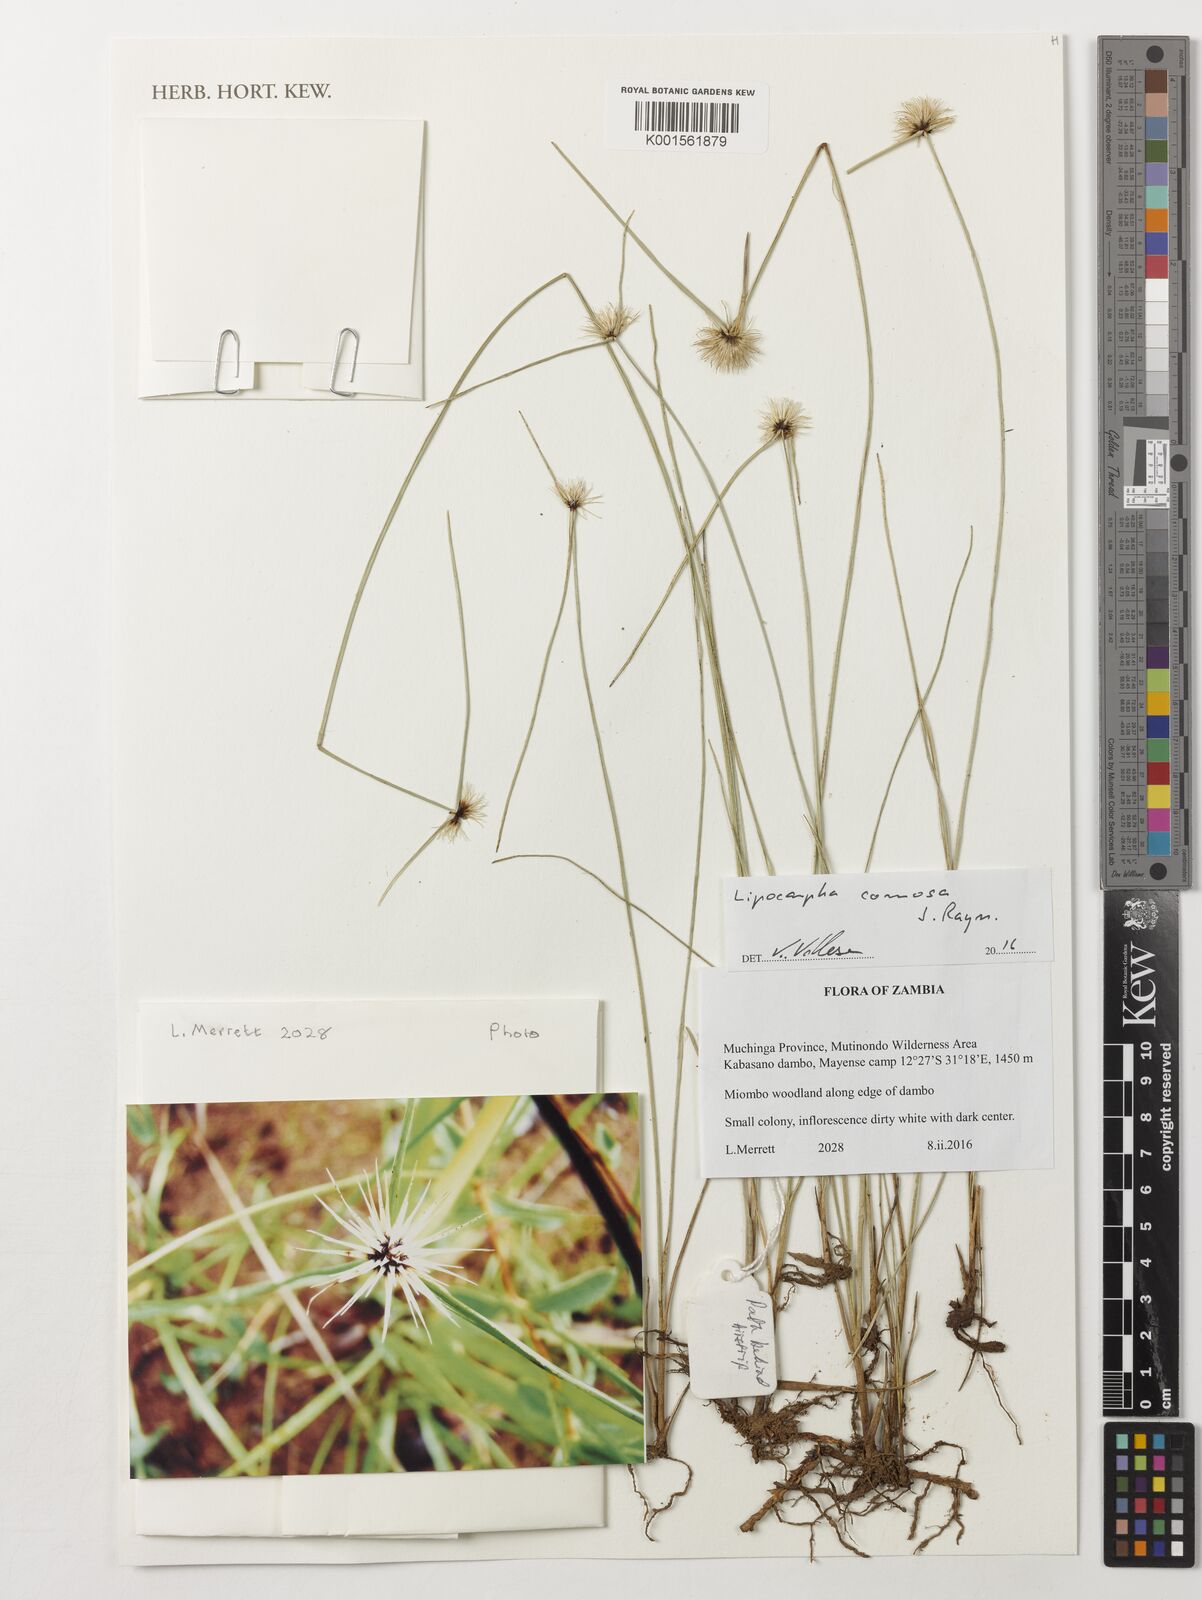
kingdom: Plantae
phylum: Tracheophyta
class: Liliopsida
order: Poales
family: Cyperaceae
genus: Cyperus
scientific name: Cyperus lipocomosus
